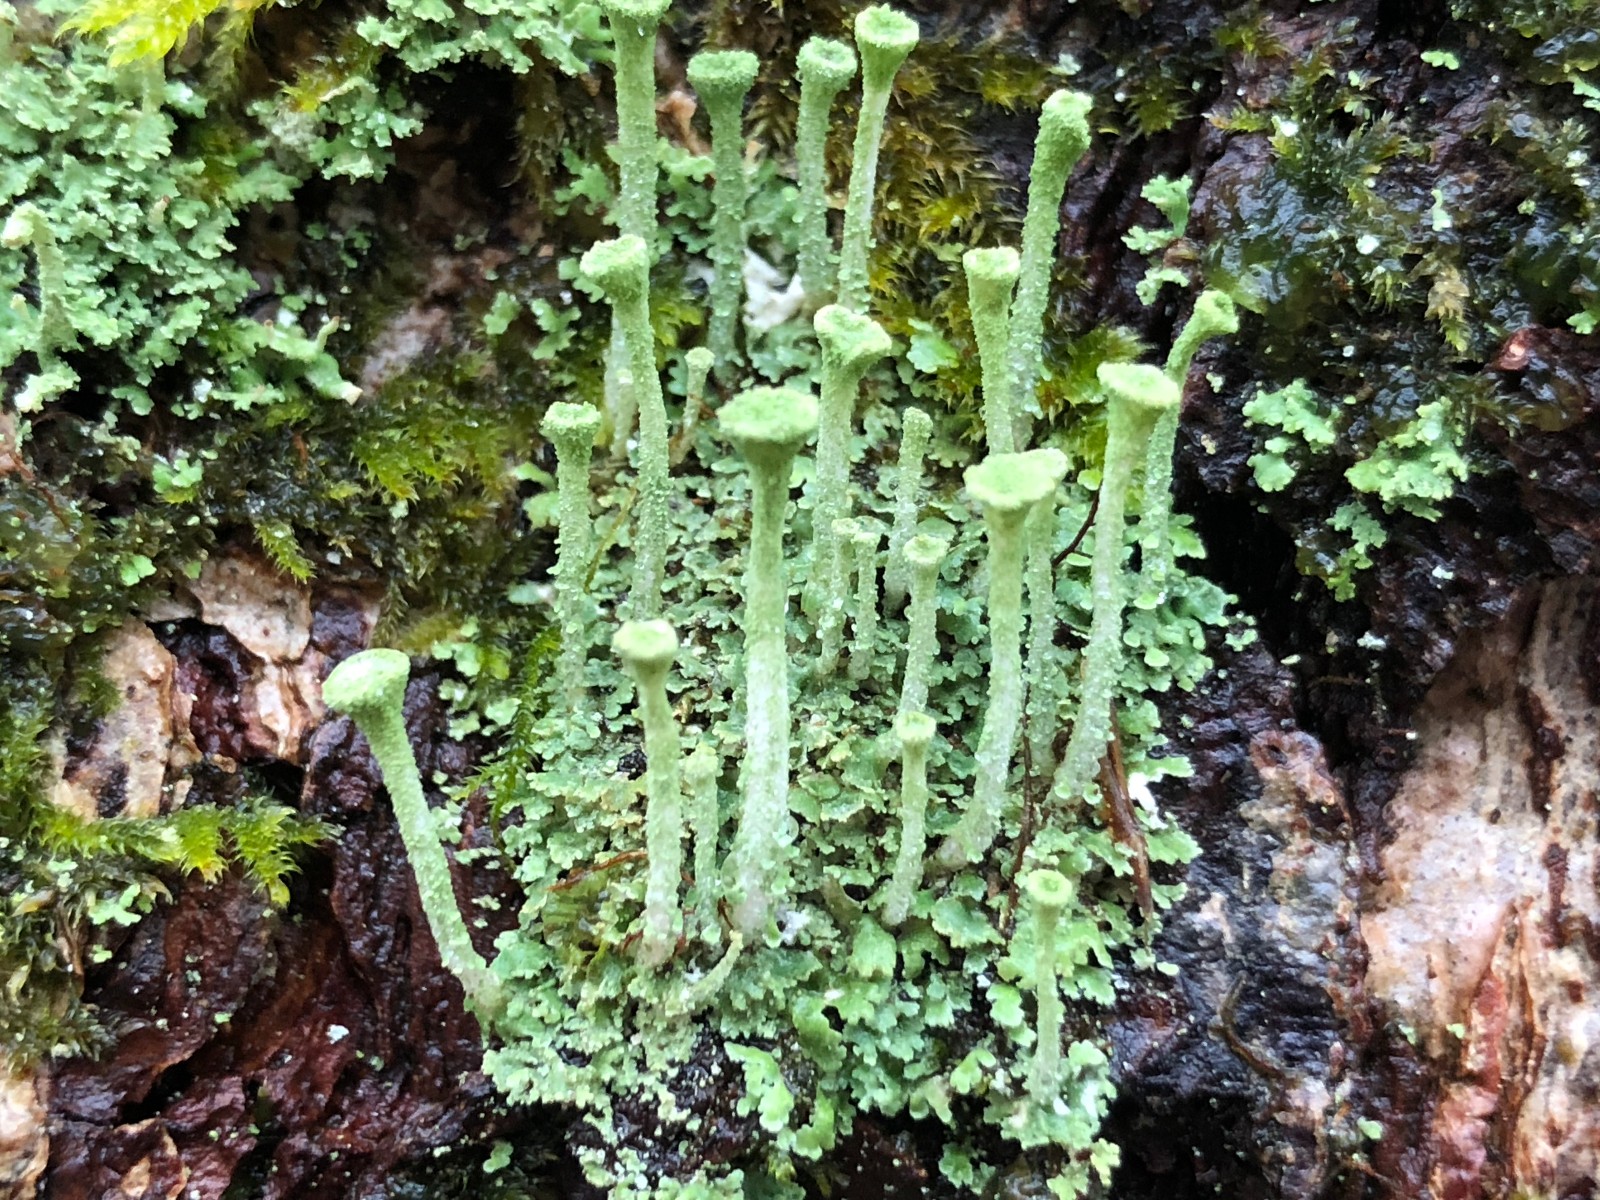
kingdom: Fungi
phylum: Ascomycota
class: Lecanoromycetes
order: Lecanorales
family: Cladoniaceae
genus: Cladonia
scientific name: Cladonia fimbriata
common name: bleggrøn bægerlav
